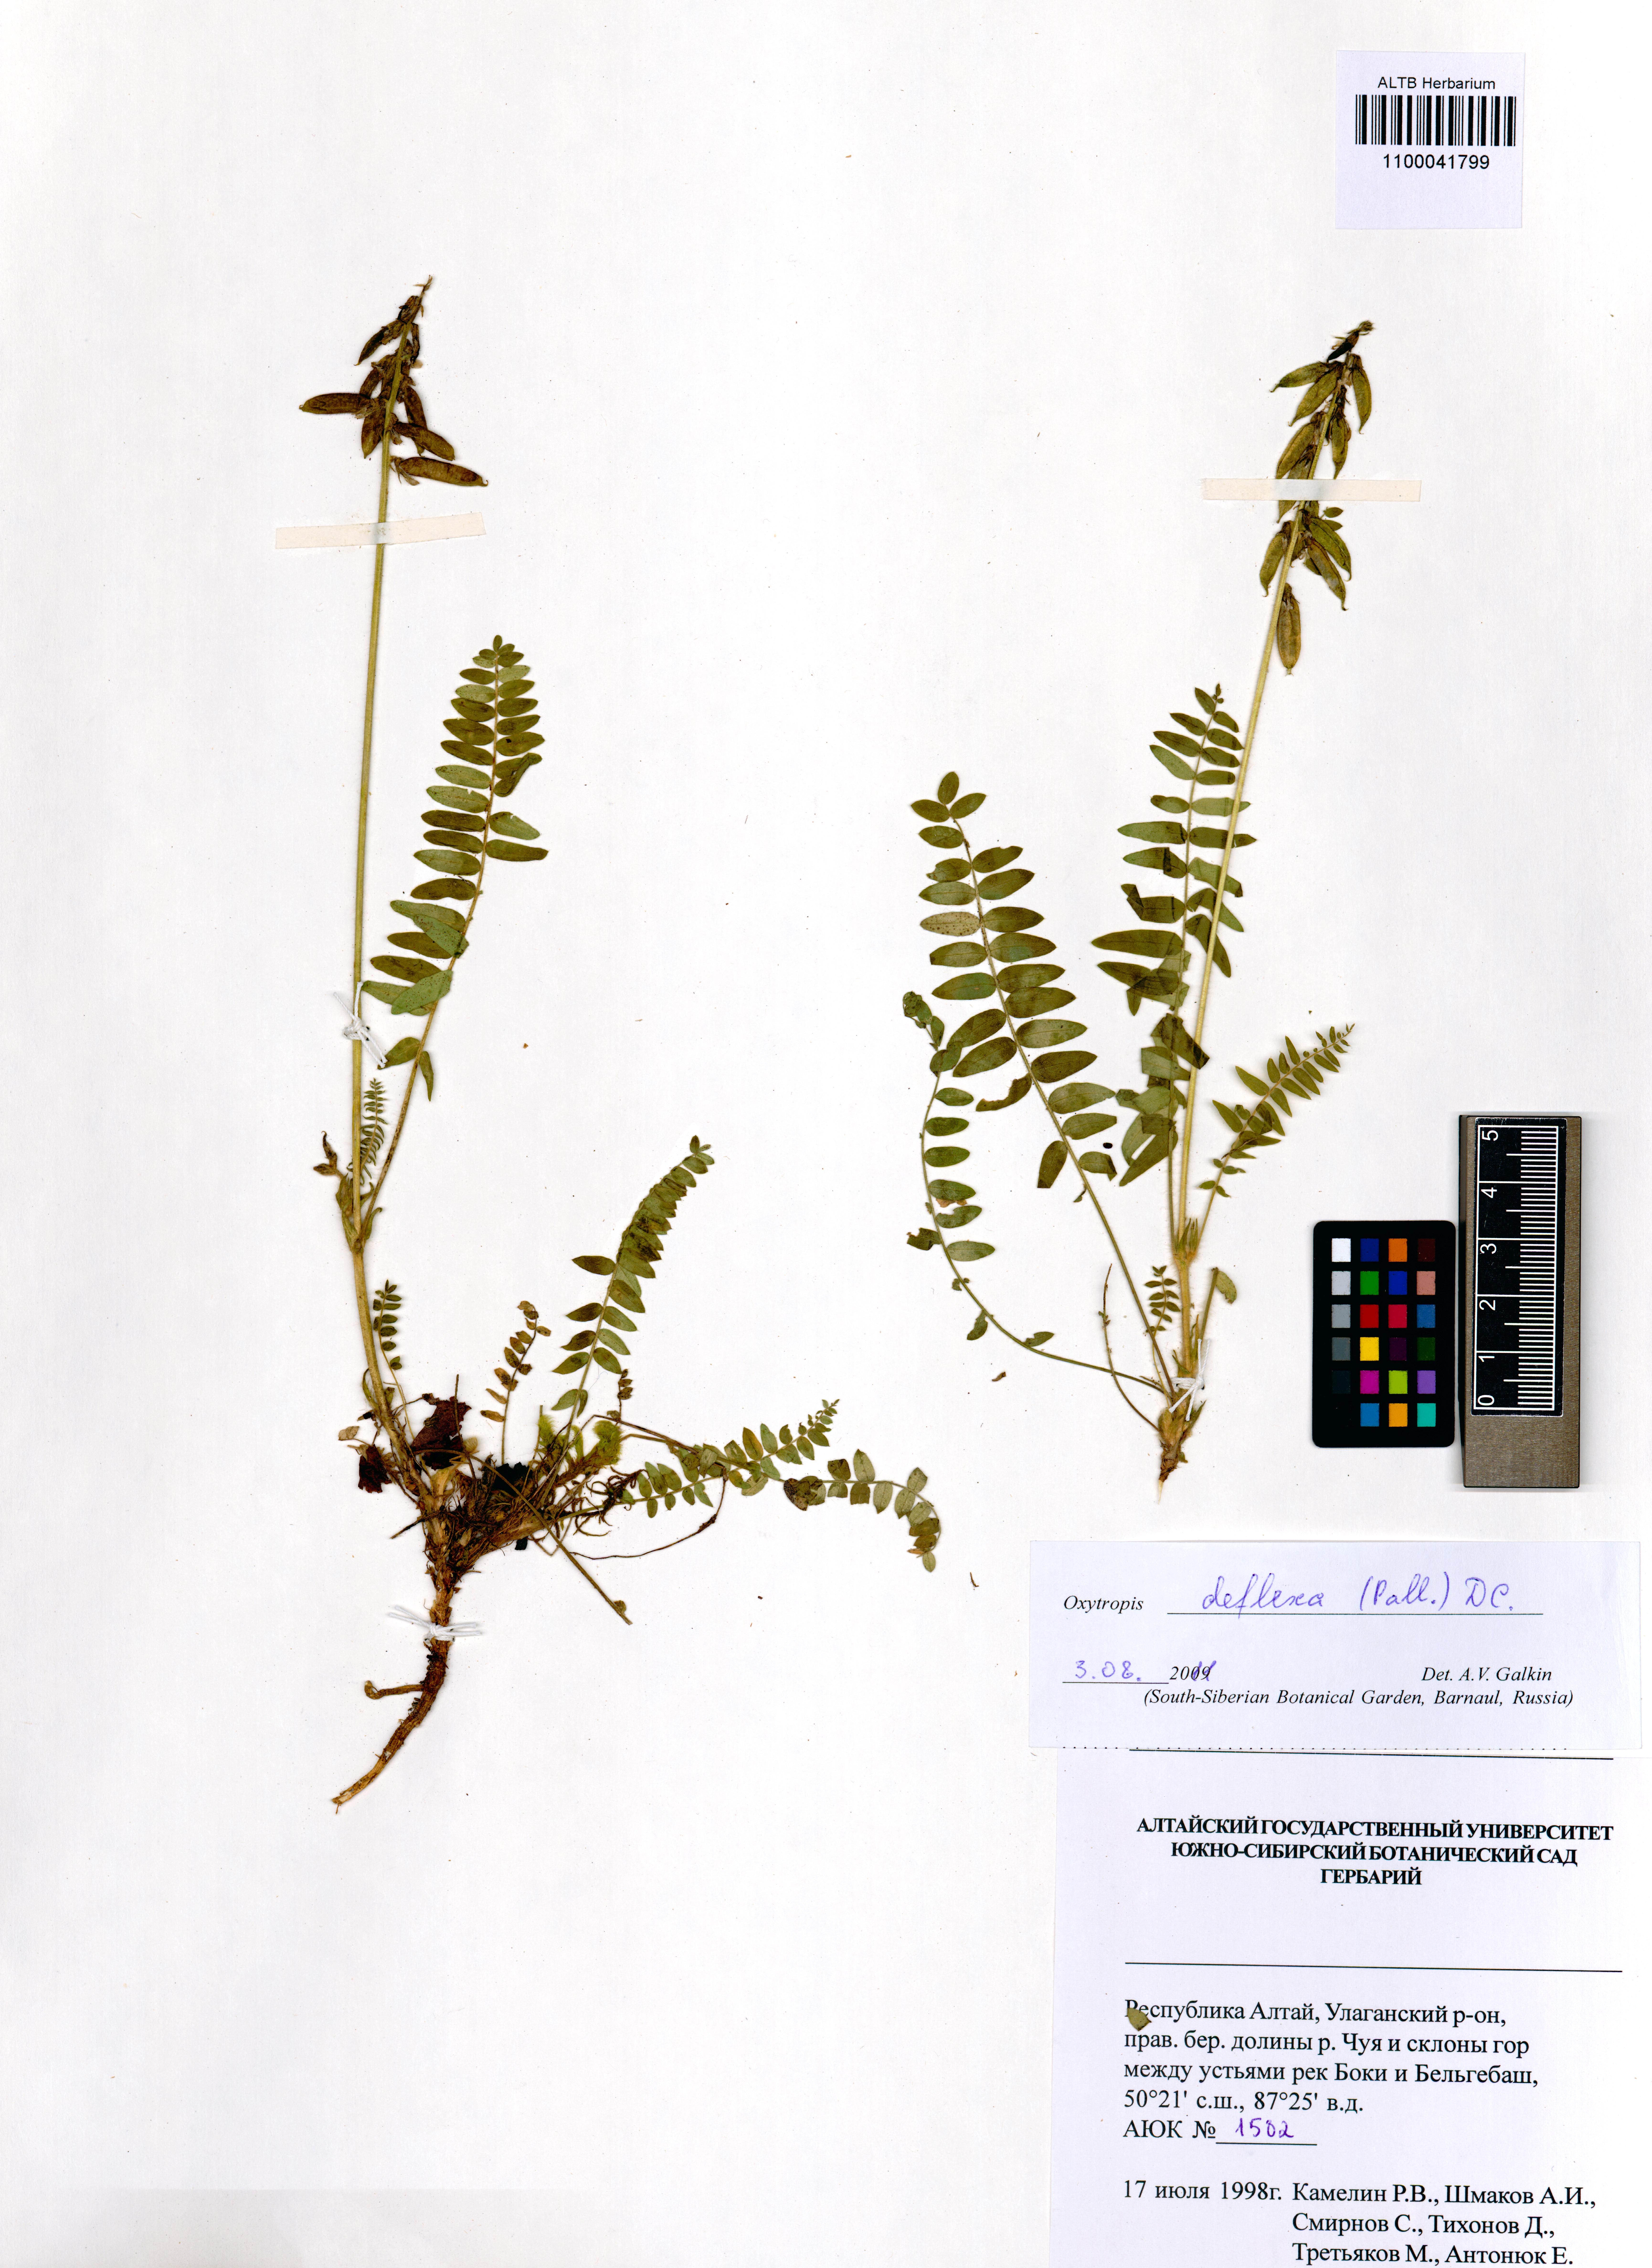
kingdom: Plantae
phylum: Tracheophyta
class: Magnoliopsida
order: Fabales
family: Fabaceae
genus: Oxytropis
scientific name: Oxytropis deflexa
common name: Stemmed oxytrope
